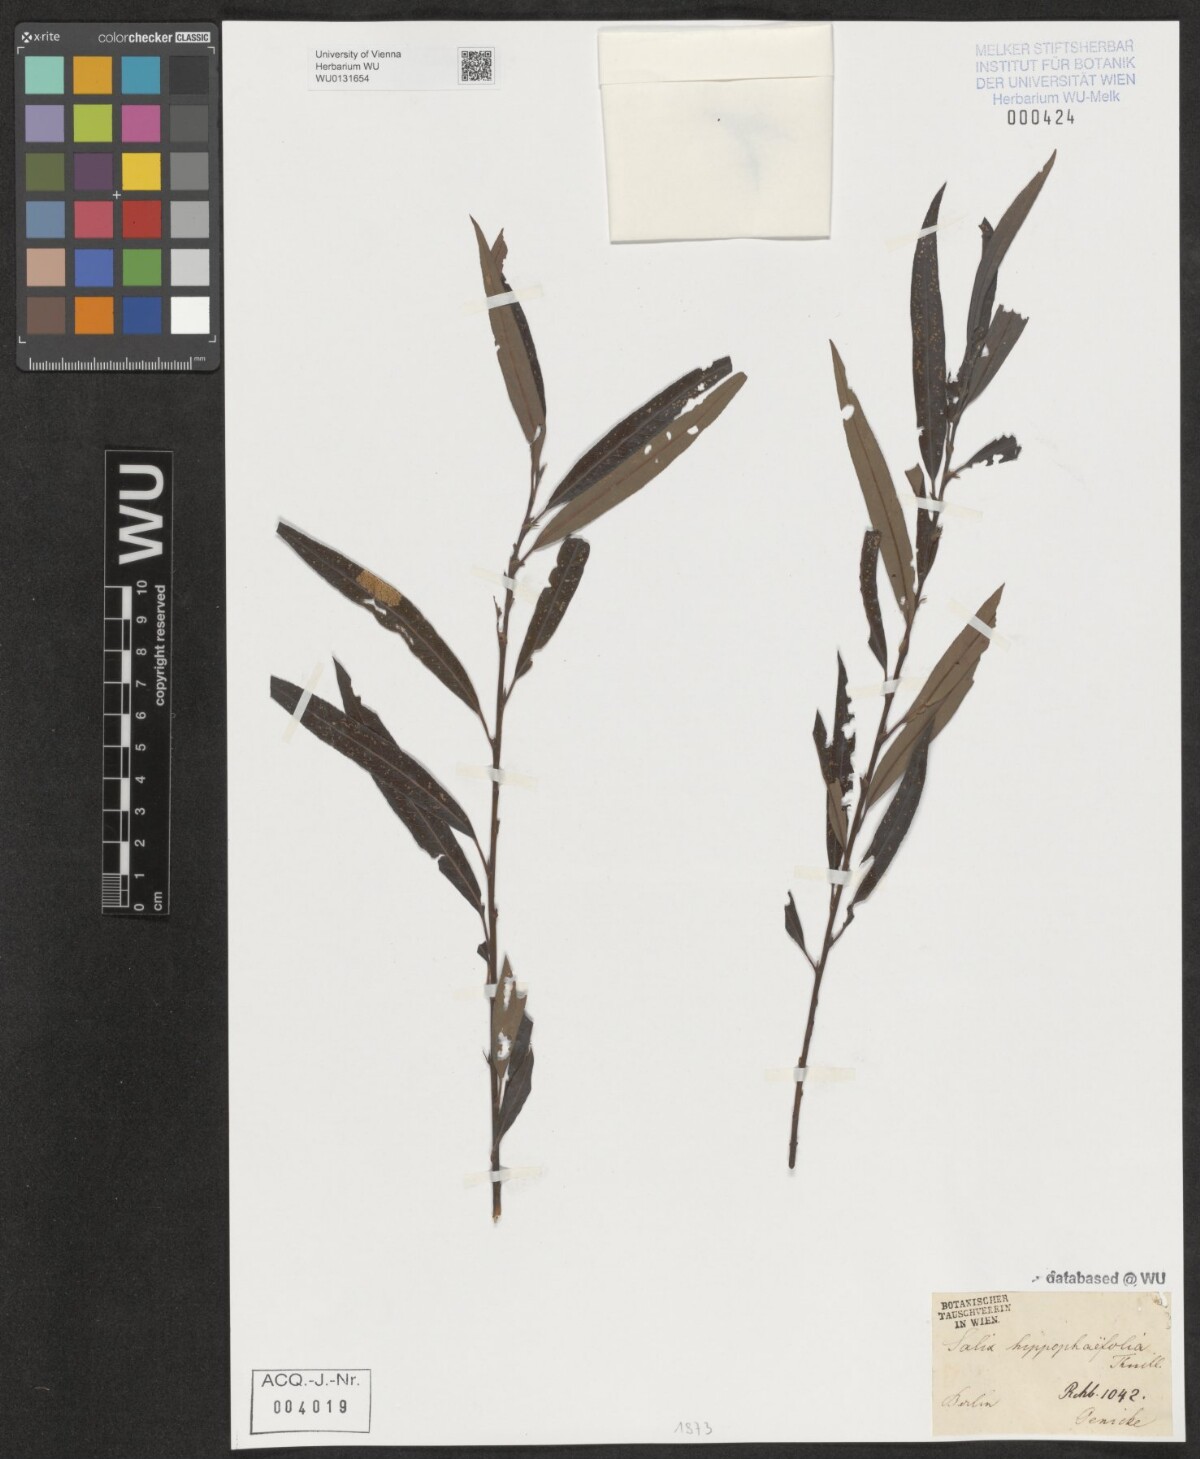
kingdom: Plantae
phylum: Tracheophyta
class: Magnoliopsida
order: Malpighiales
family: Salicaceae
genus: Salix
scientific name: Salix mollissima
